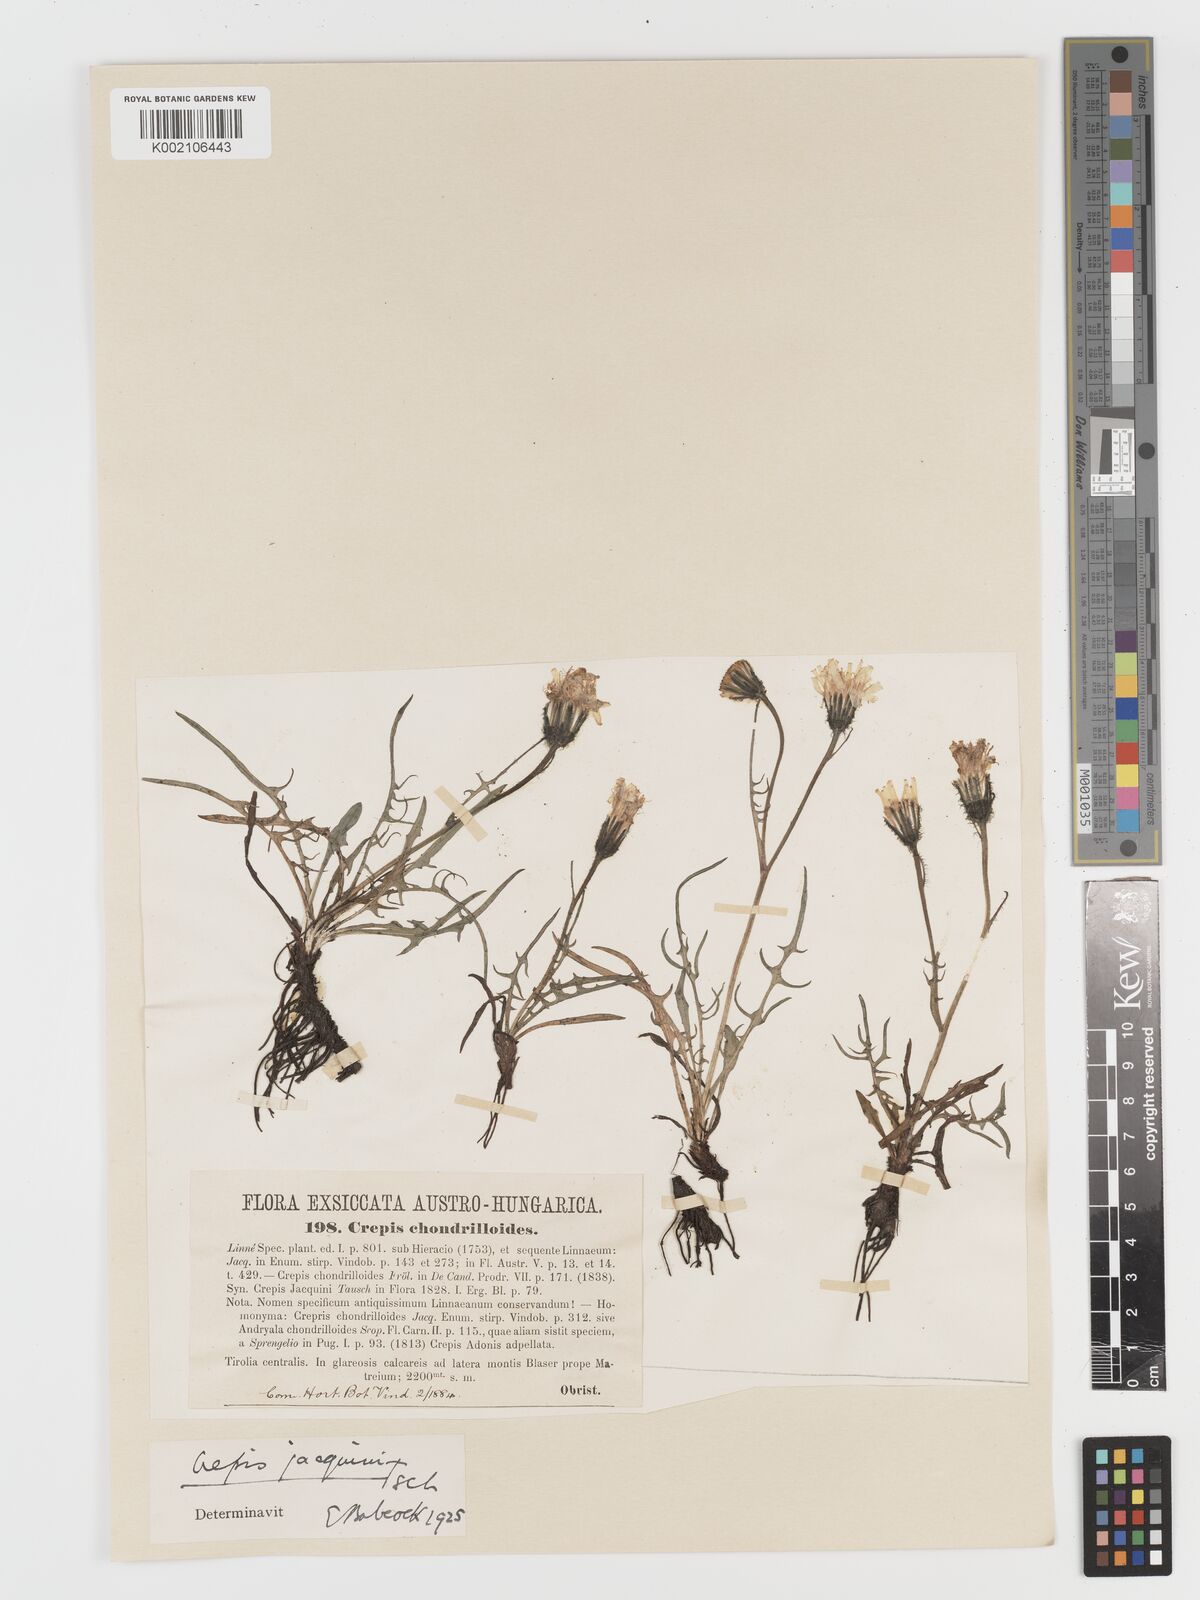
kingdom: Plantae
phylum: Tracheophyta
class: Magnoliopsida
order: Asterales
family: Asteraceae
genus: Crepis
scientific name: Crepis jacquinii
